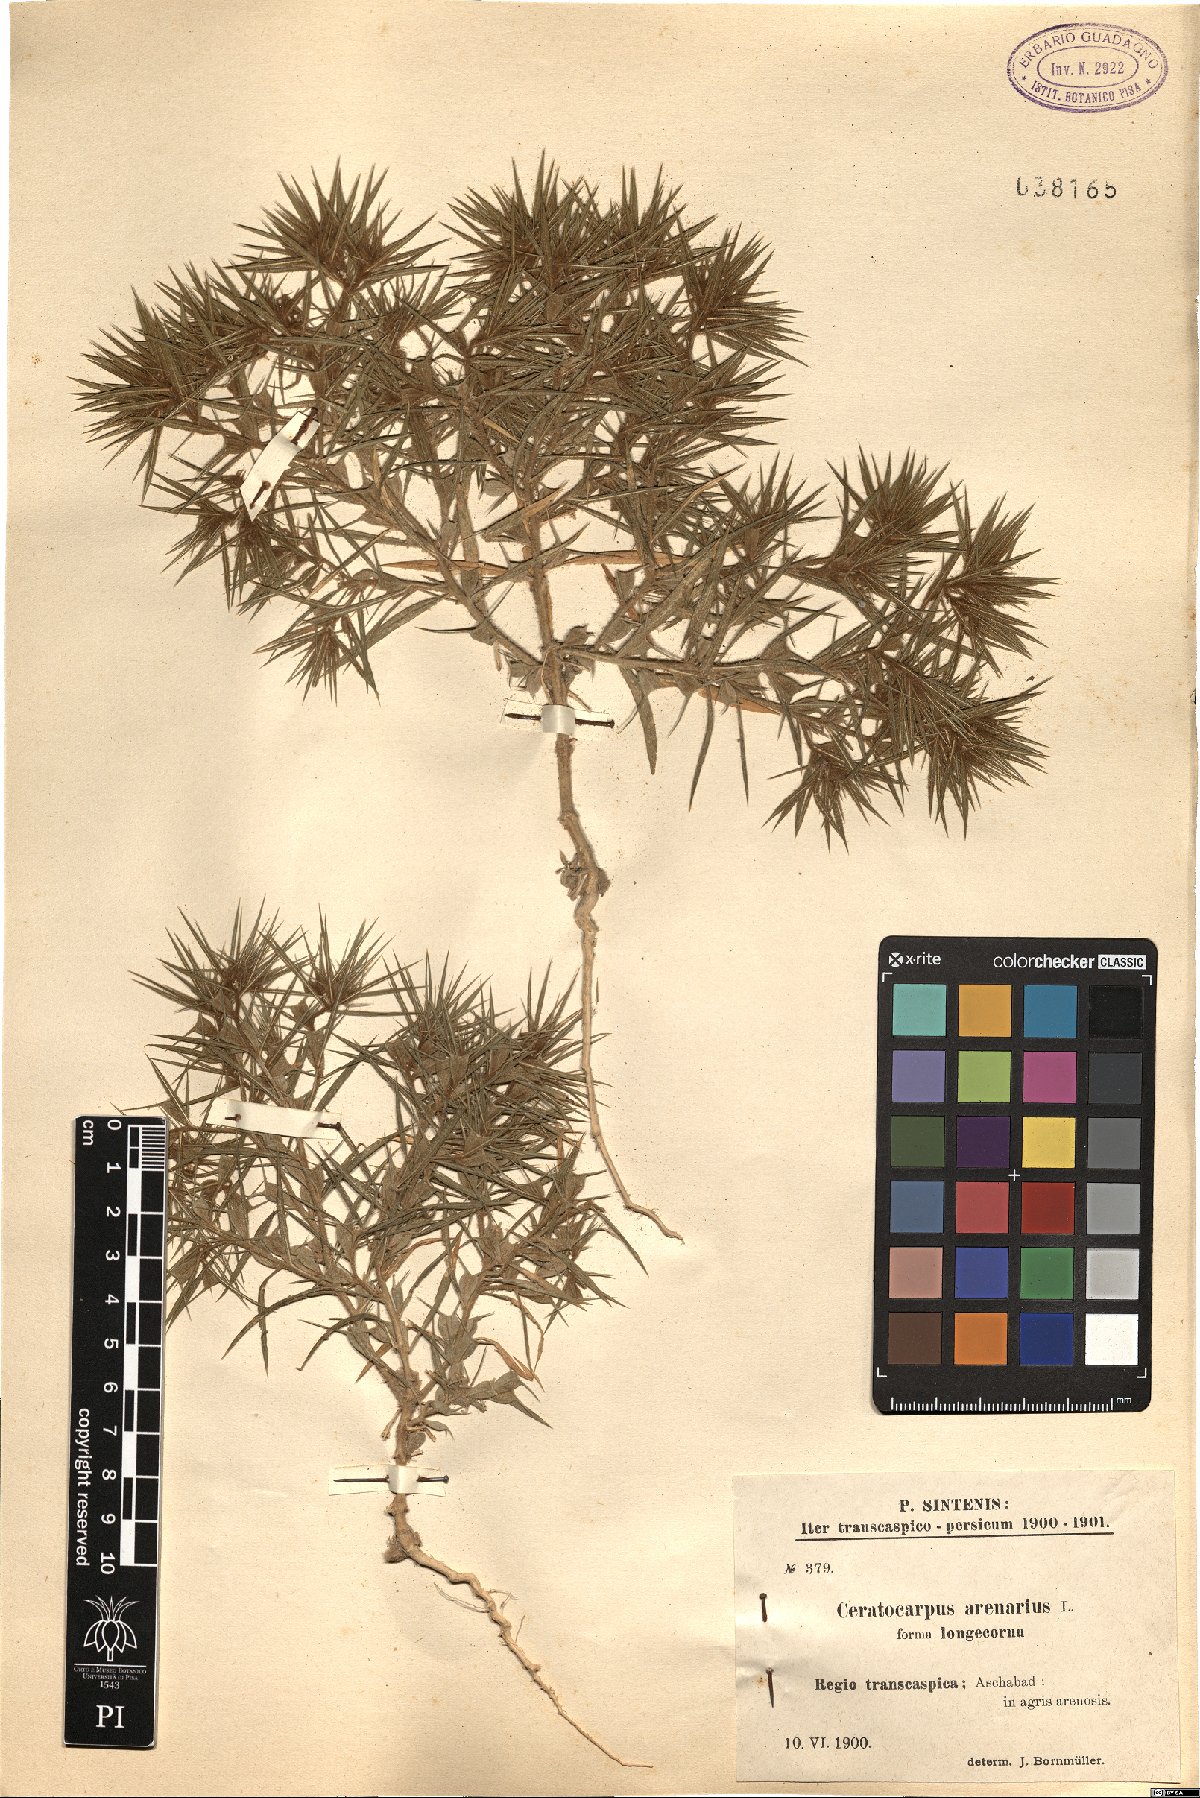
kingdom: Plantae
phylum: Tracheophyta
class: Magnoliopsida
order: Caryophyllales
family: Amaranthaceae
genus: Ceratocarpus
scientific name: Ceratocarpus arenarius
